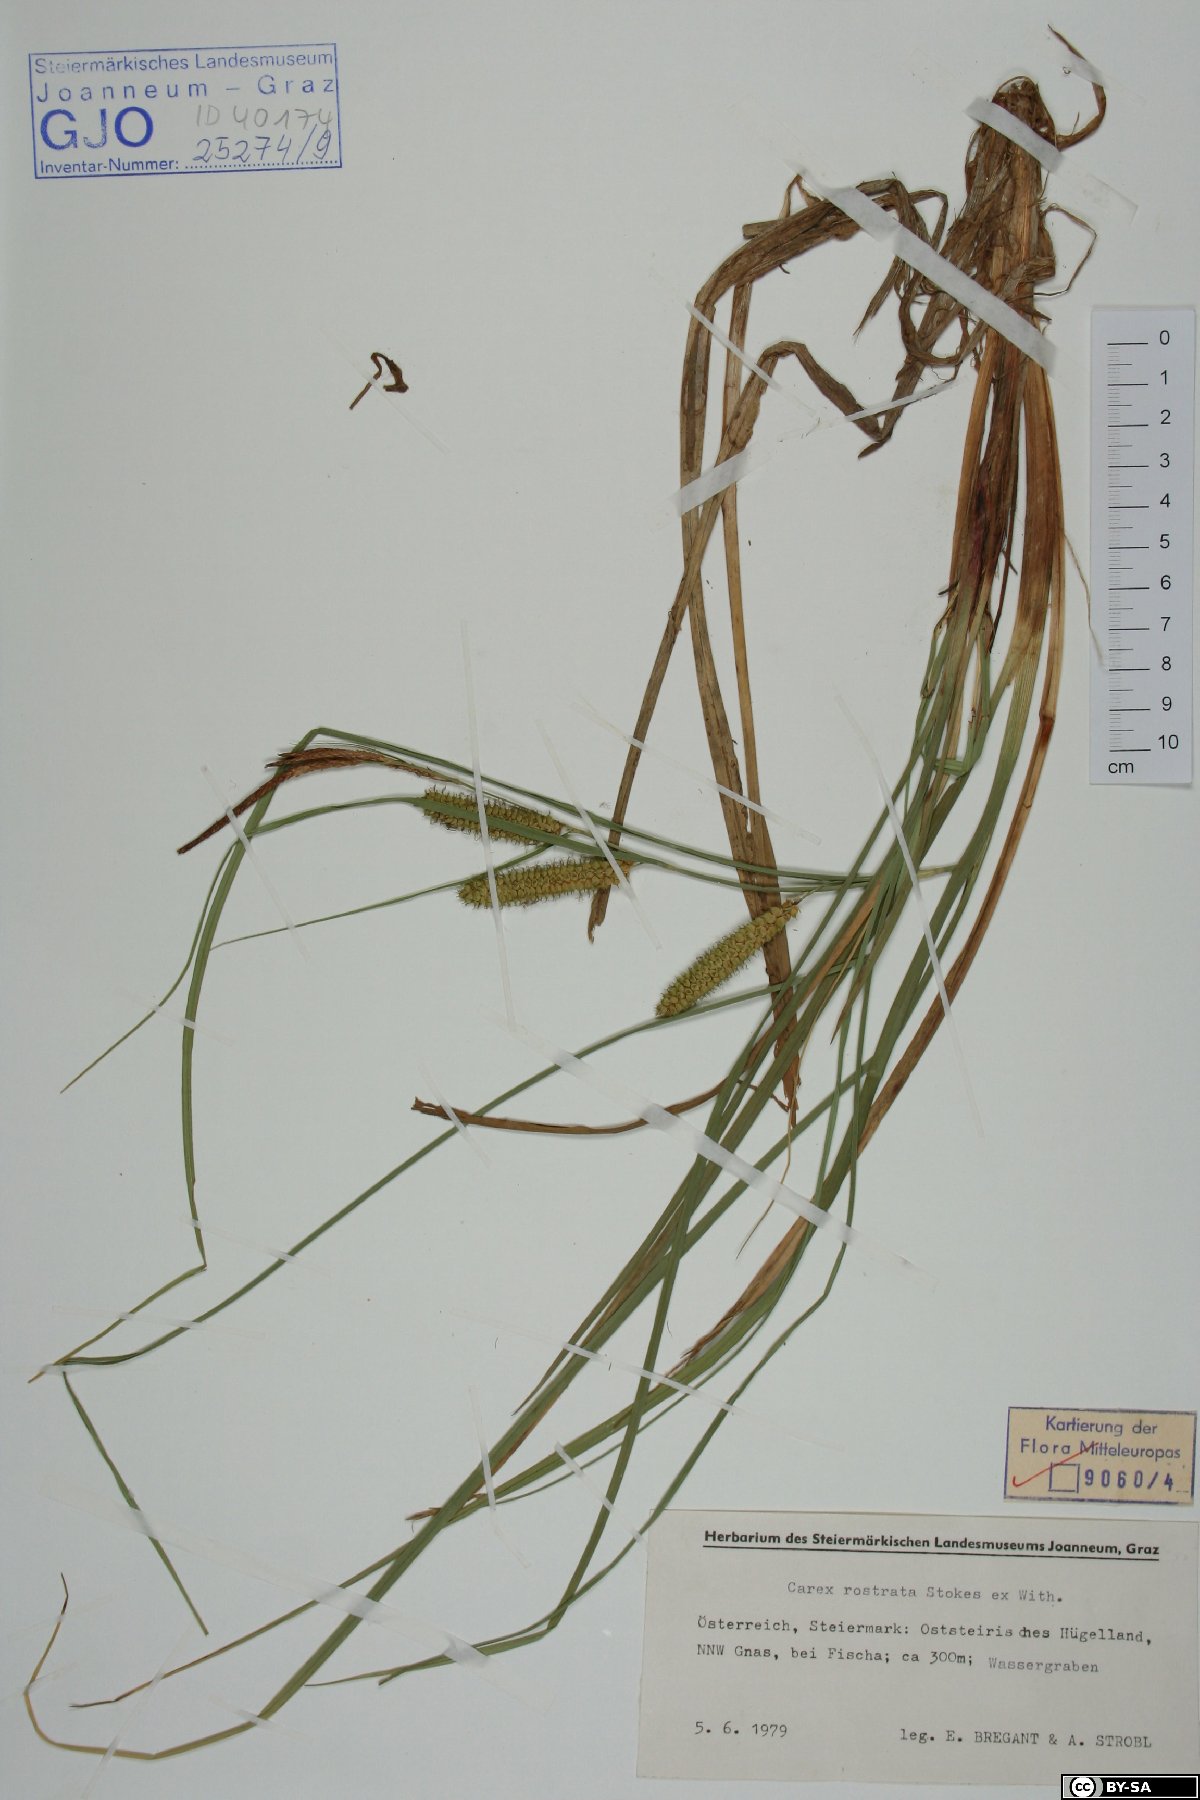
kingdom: Plantae
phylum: Tracheophyta
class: Liliopsida
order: Poales
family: Cyperaceae
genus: Carex
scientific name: Carex rostrata
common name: Bottle sedge
